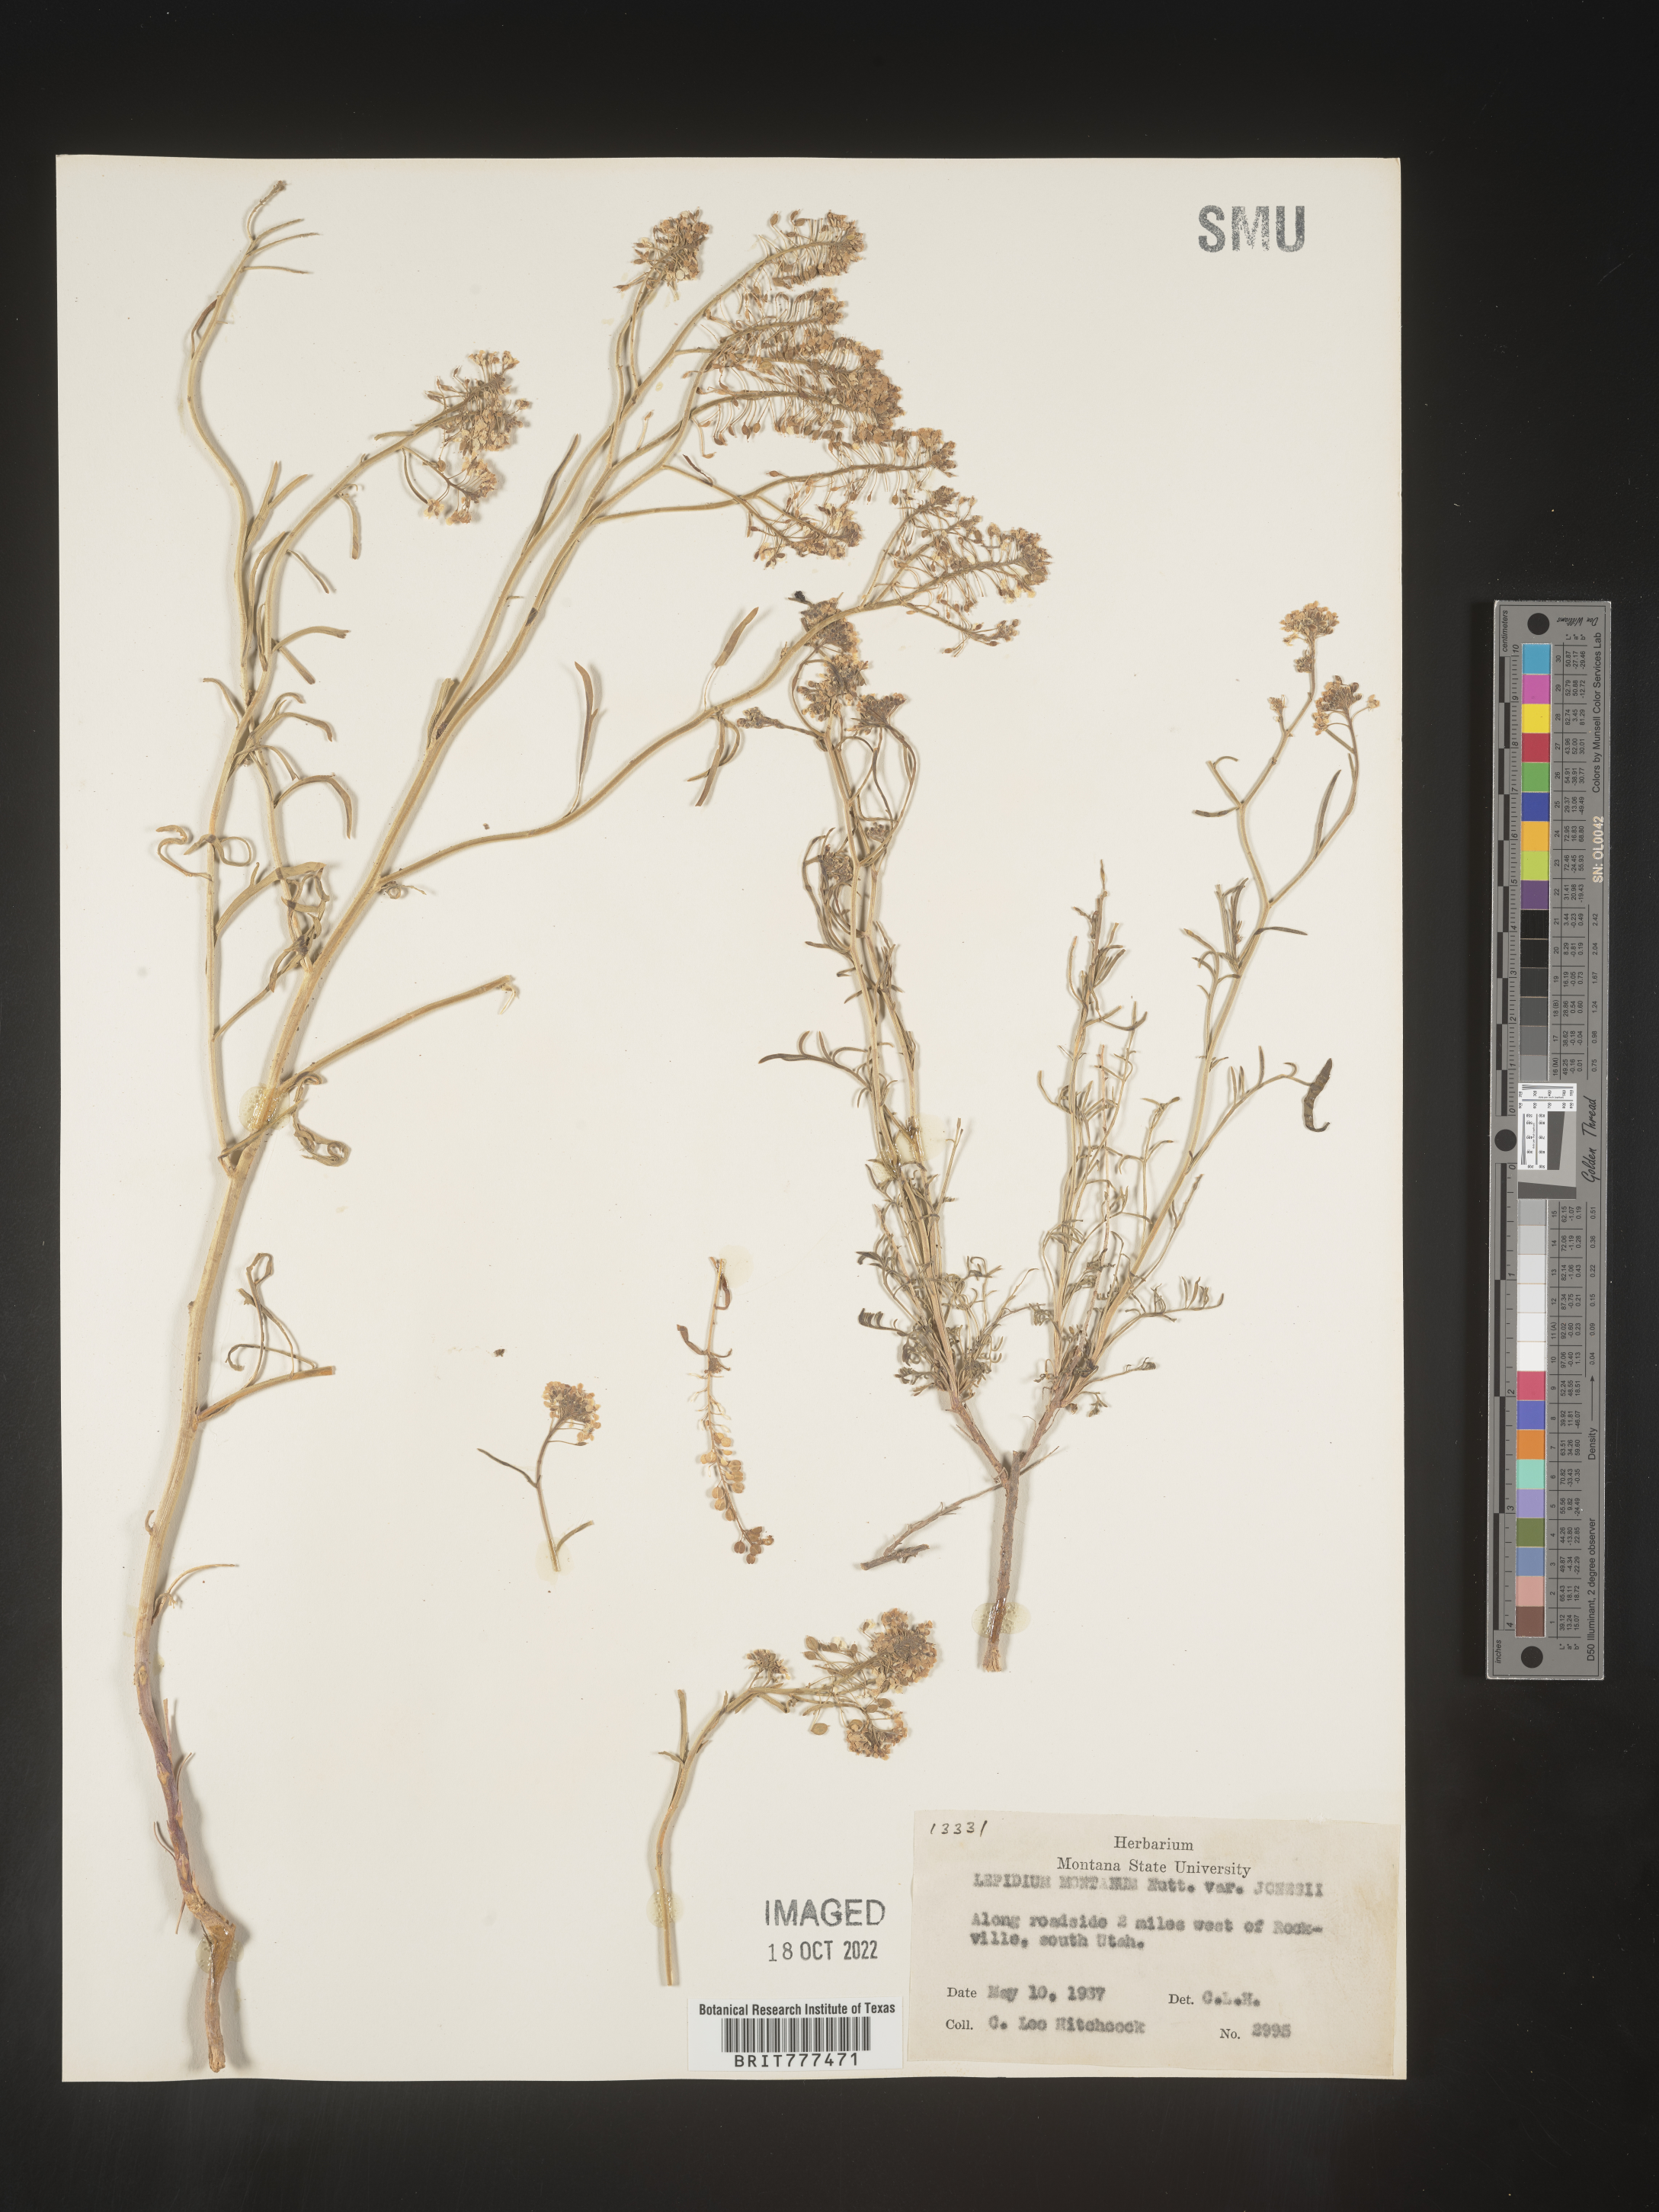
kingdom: Plantae
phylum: Tracheophyta
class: Magnoliopsida
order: Brassicales
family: Brassicaceae
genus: Lepidium
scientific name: Lepidium montanum
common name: Mountain pepperplant
